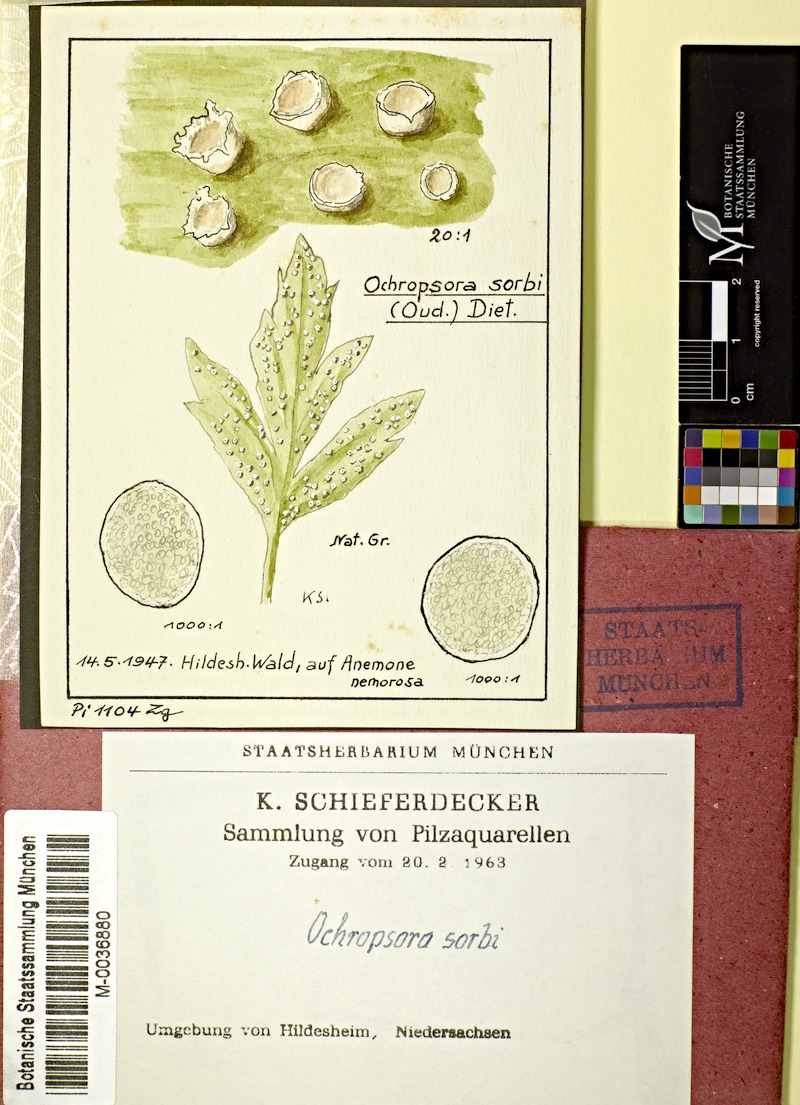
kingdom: Plantae
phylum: Tracheophyta
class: Magnoliopsida
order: Ranunculales
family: Ranunculaceae
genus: Anemone
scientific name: Anemone nemorosa
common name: Wood anemone
